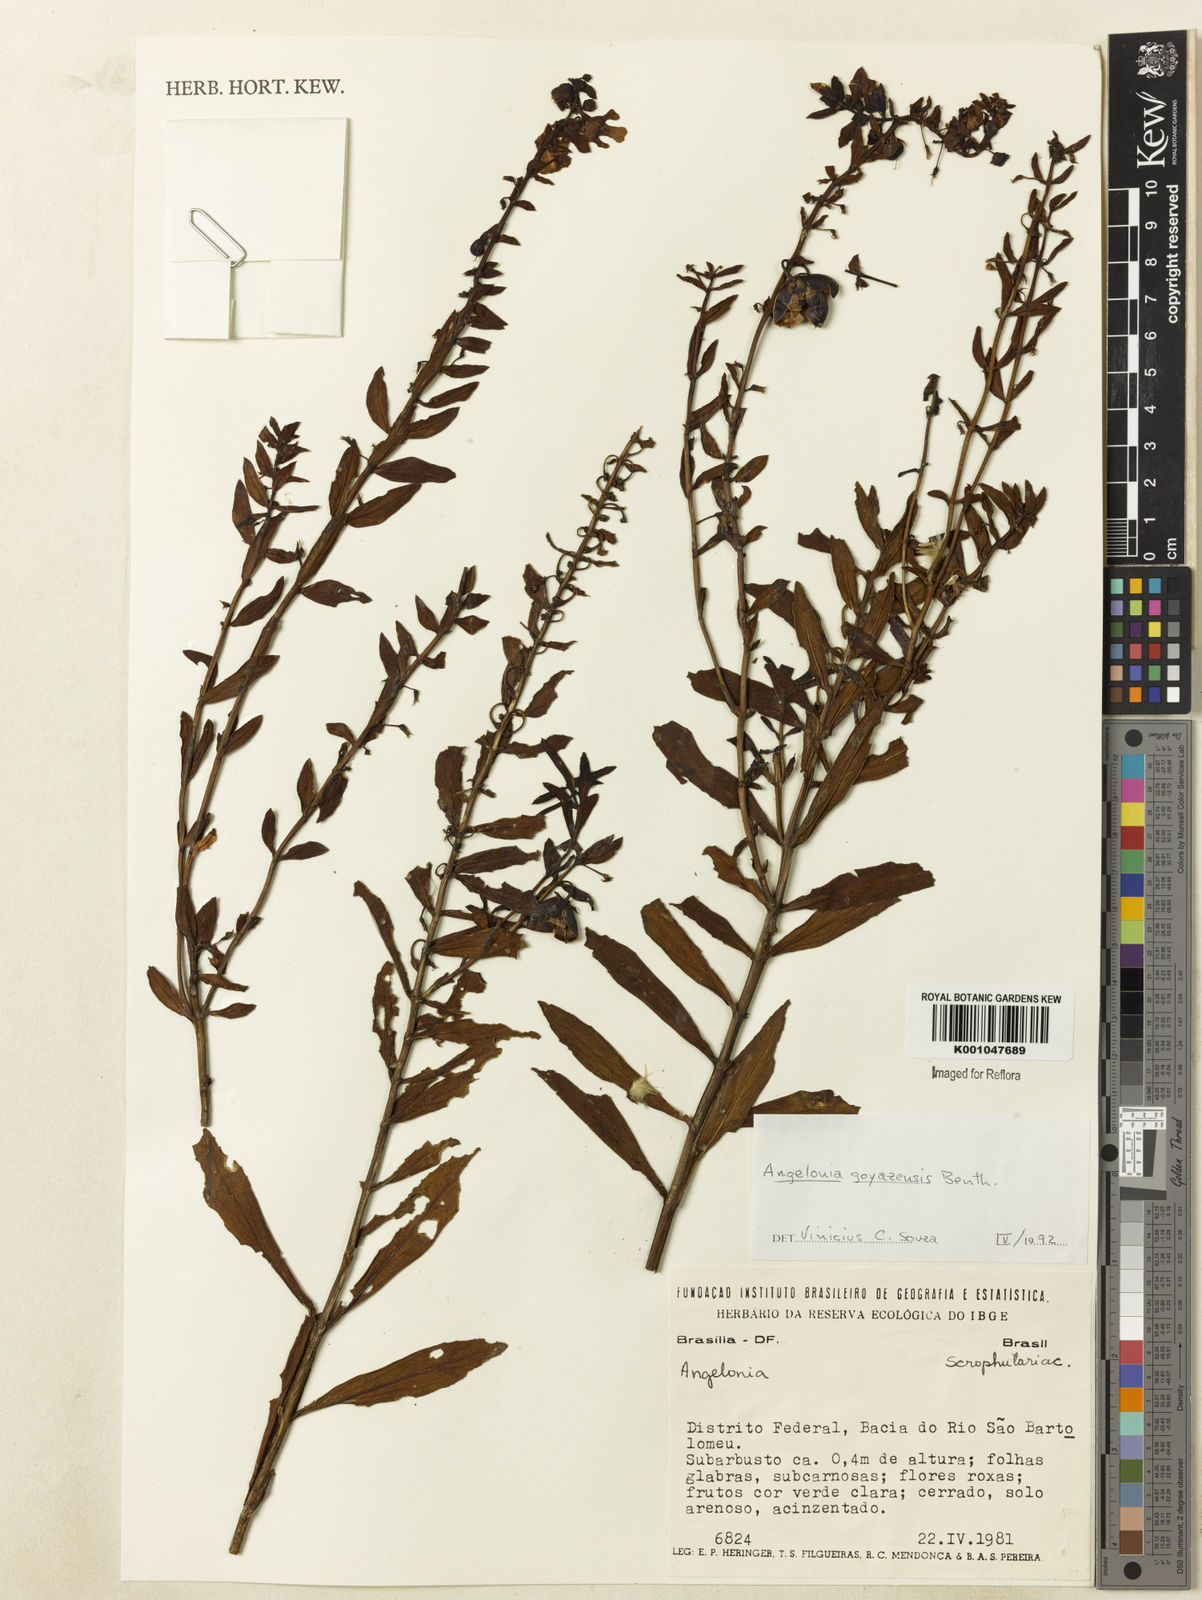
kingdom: Plantae
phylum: Tracheophyta
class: Magnoliopsida
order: Lamiales
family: Plantaginaceae
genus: Angelonia
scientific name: Angelonia goyazensis
